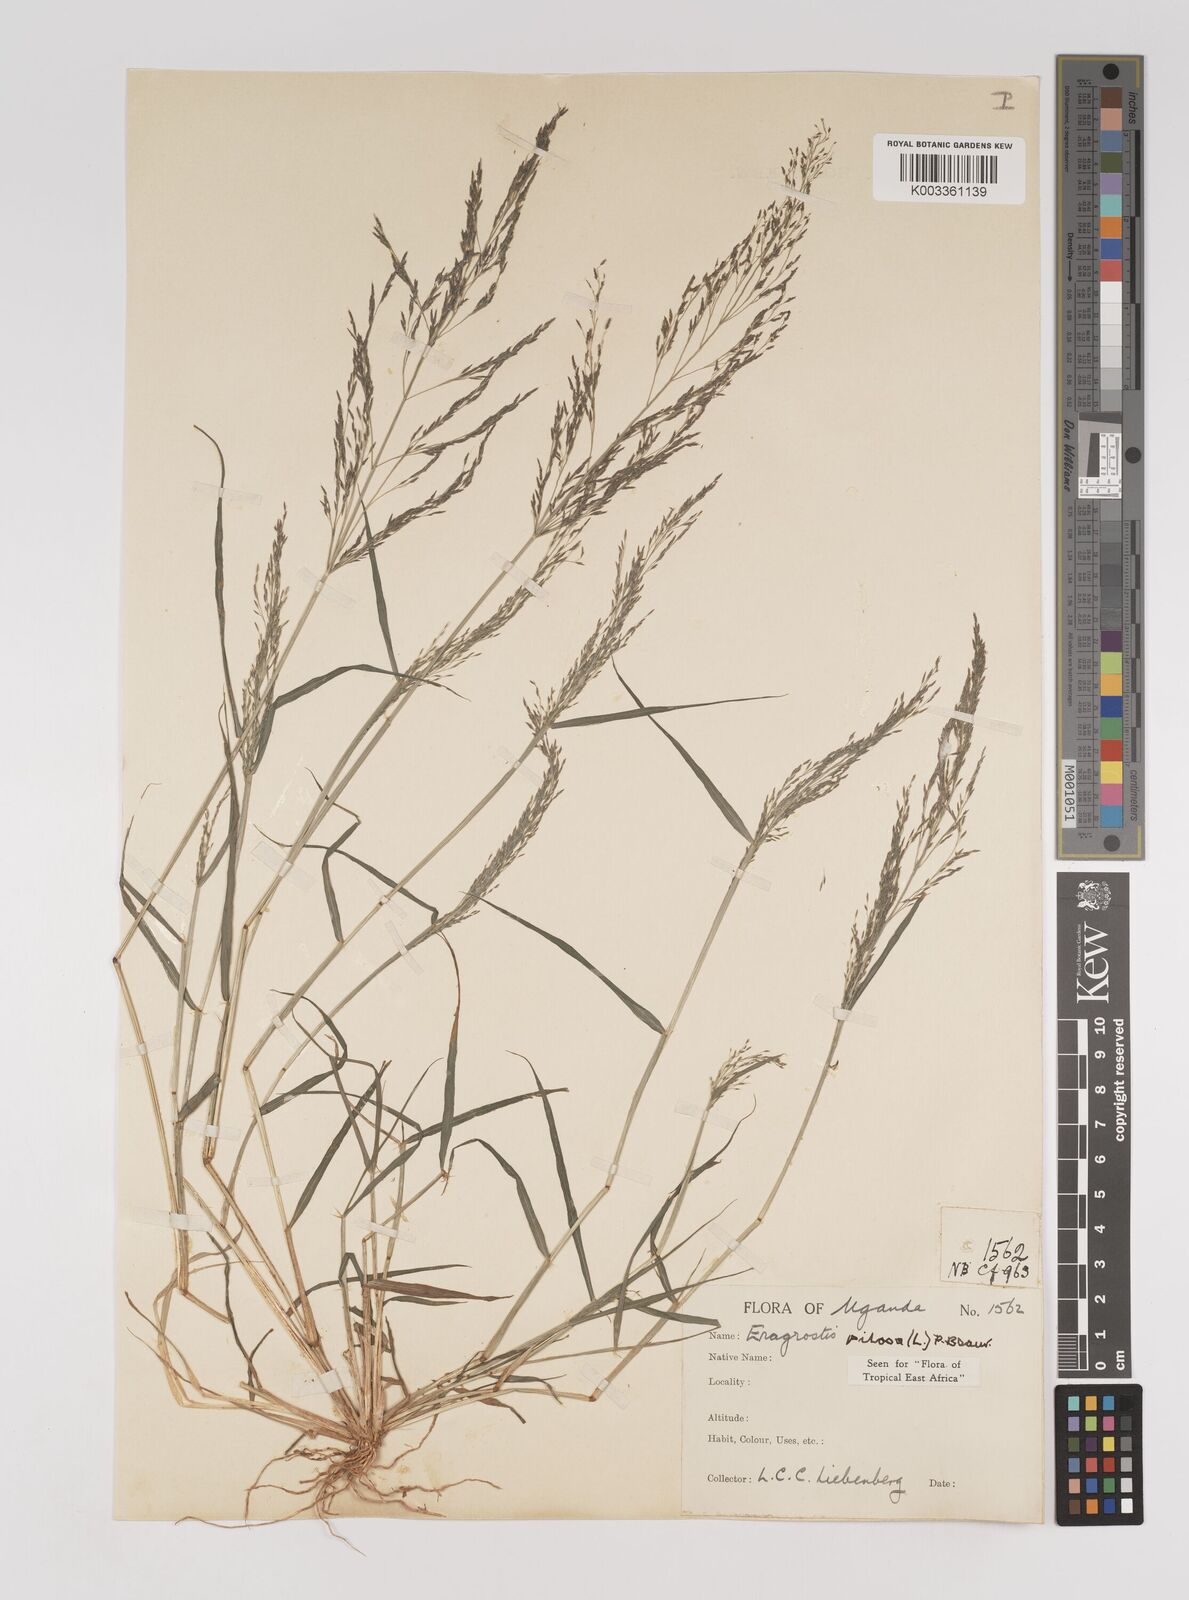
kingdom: Plantae
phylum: Tracheophyta
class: Liliopsida
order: Poales
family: Poaceae
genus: Eragrostis
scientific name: Eragrostis pilosa
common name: Indian lovegrass
